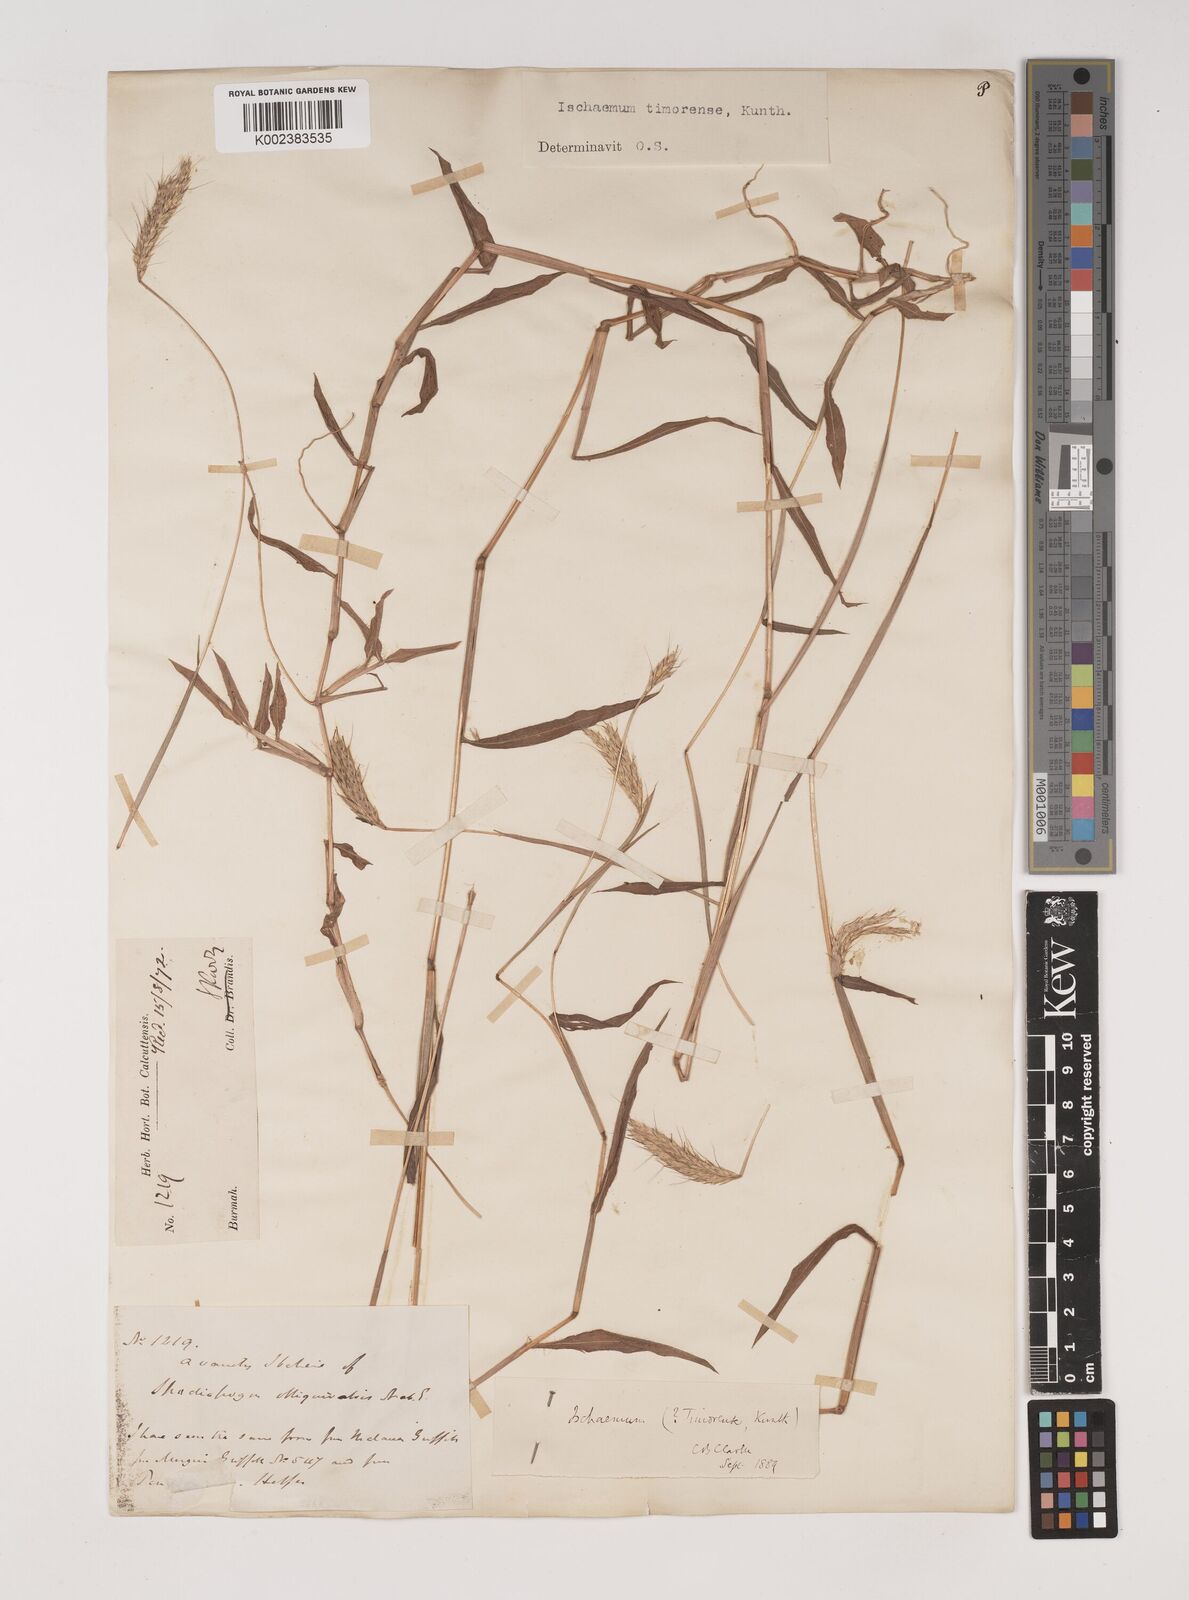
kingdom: Plantae
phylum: Tracheophyta
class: Liliopsida
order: Poales
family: Poaceae
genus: Ischaemum
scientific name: Ischaemum timorense
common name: Stalkleaf murainagrass
